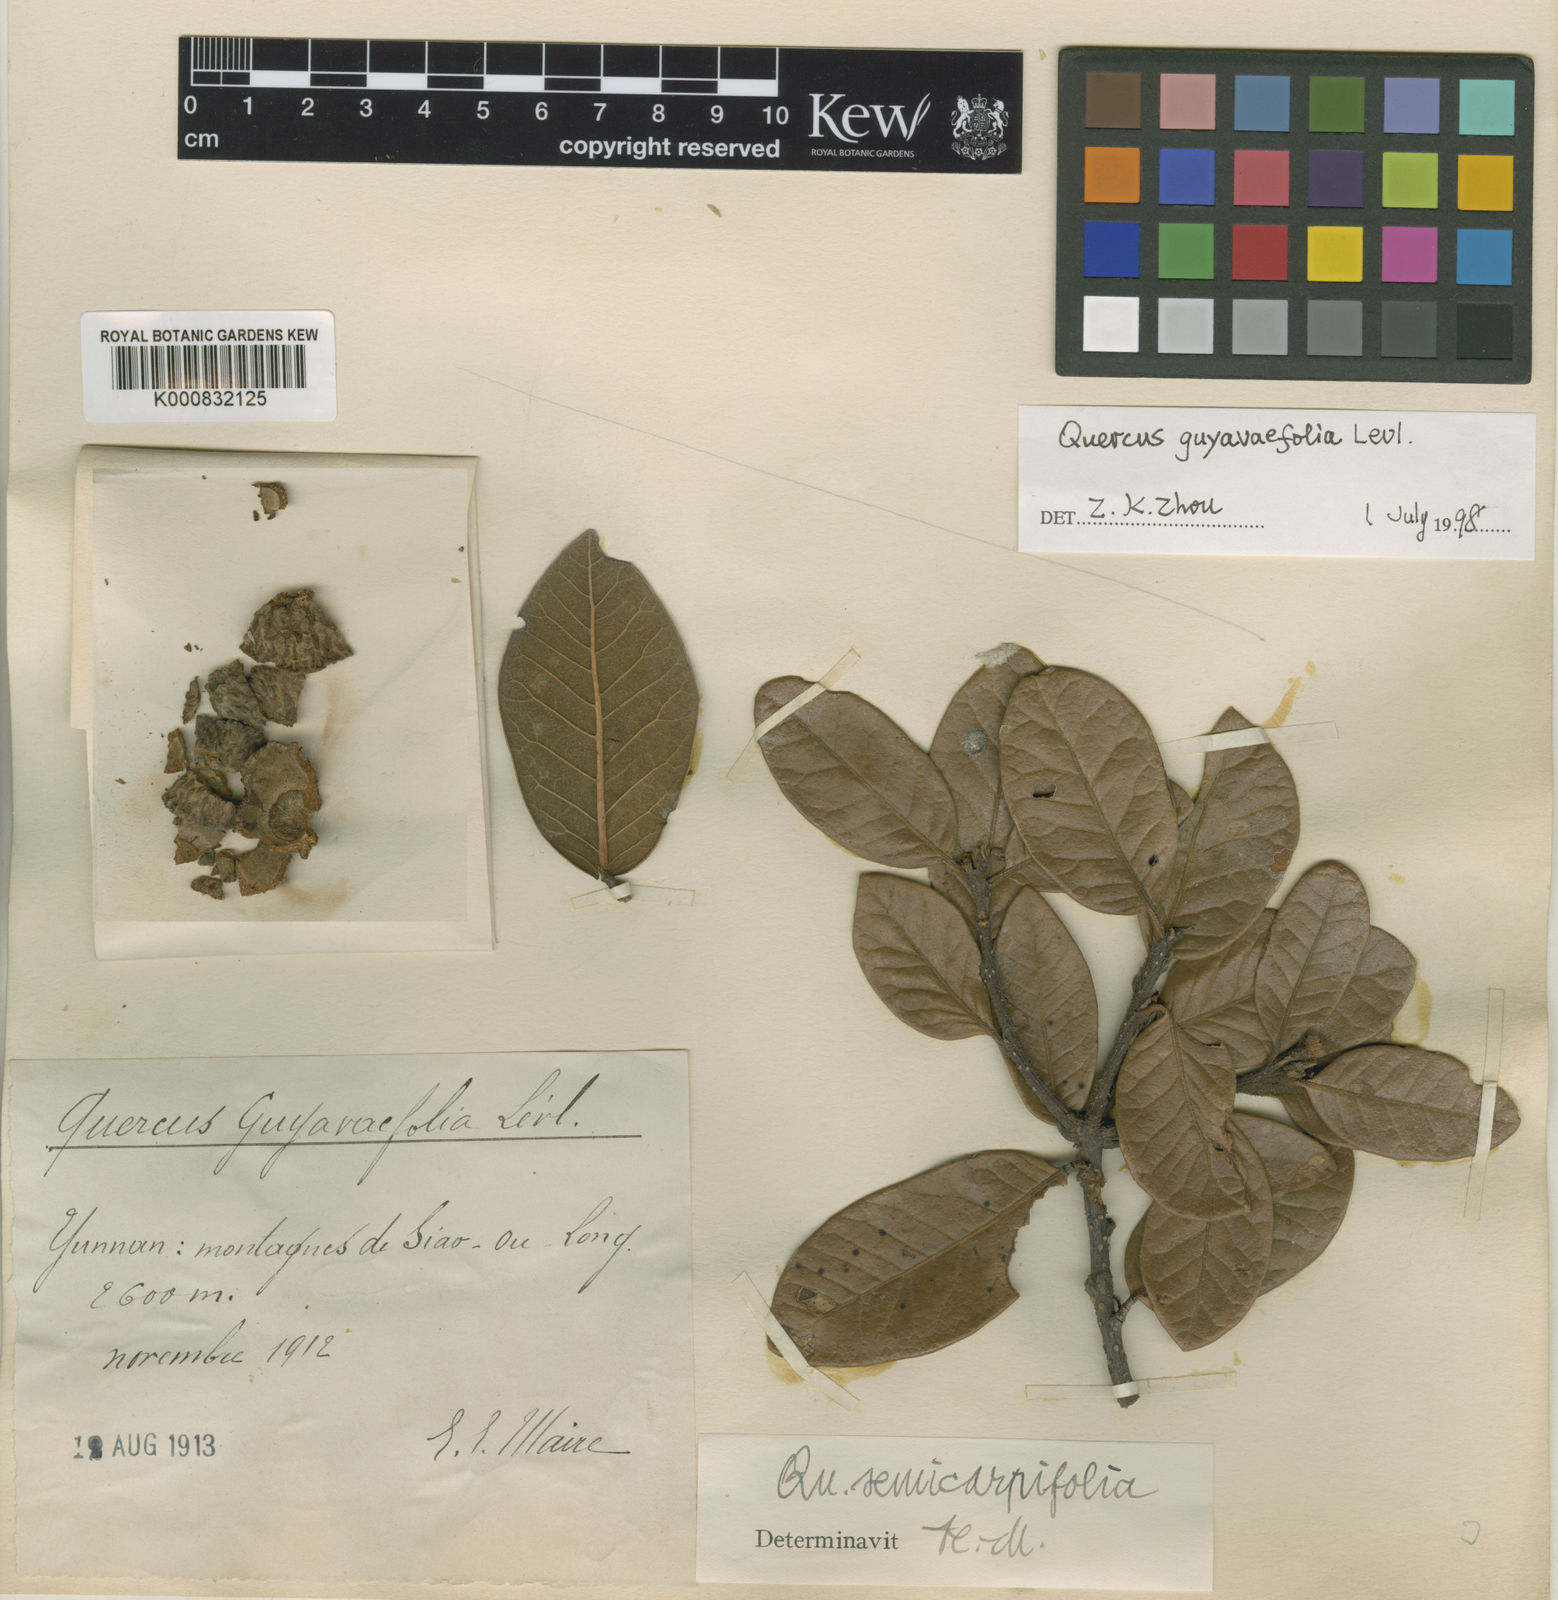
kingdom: Plantae
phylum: Tracheophyta
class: Magnoliopsida
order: Fagales
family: Fagaceae
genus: Quercus
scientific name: Quercus semecarpifolia
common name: Brown oak
